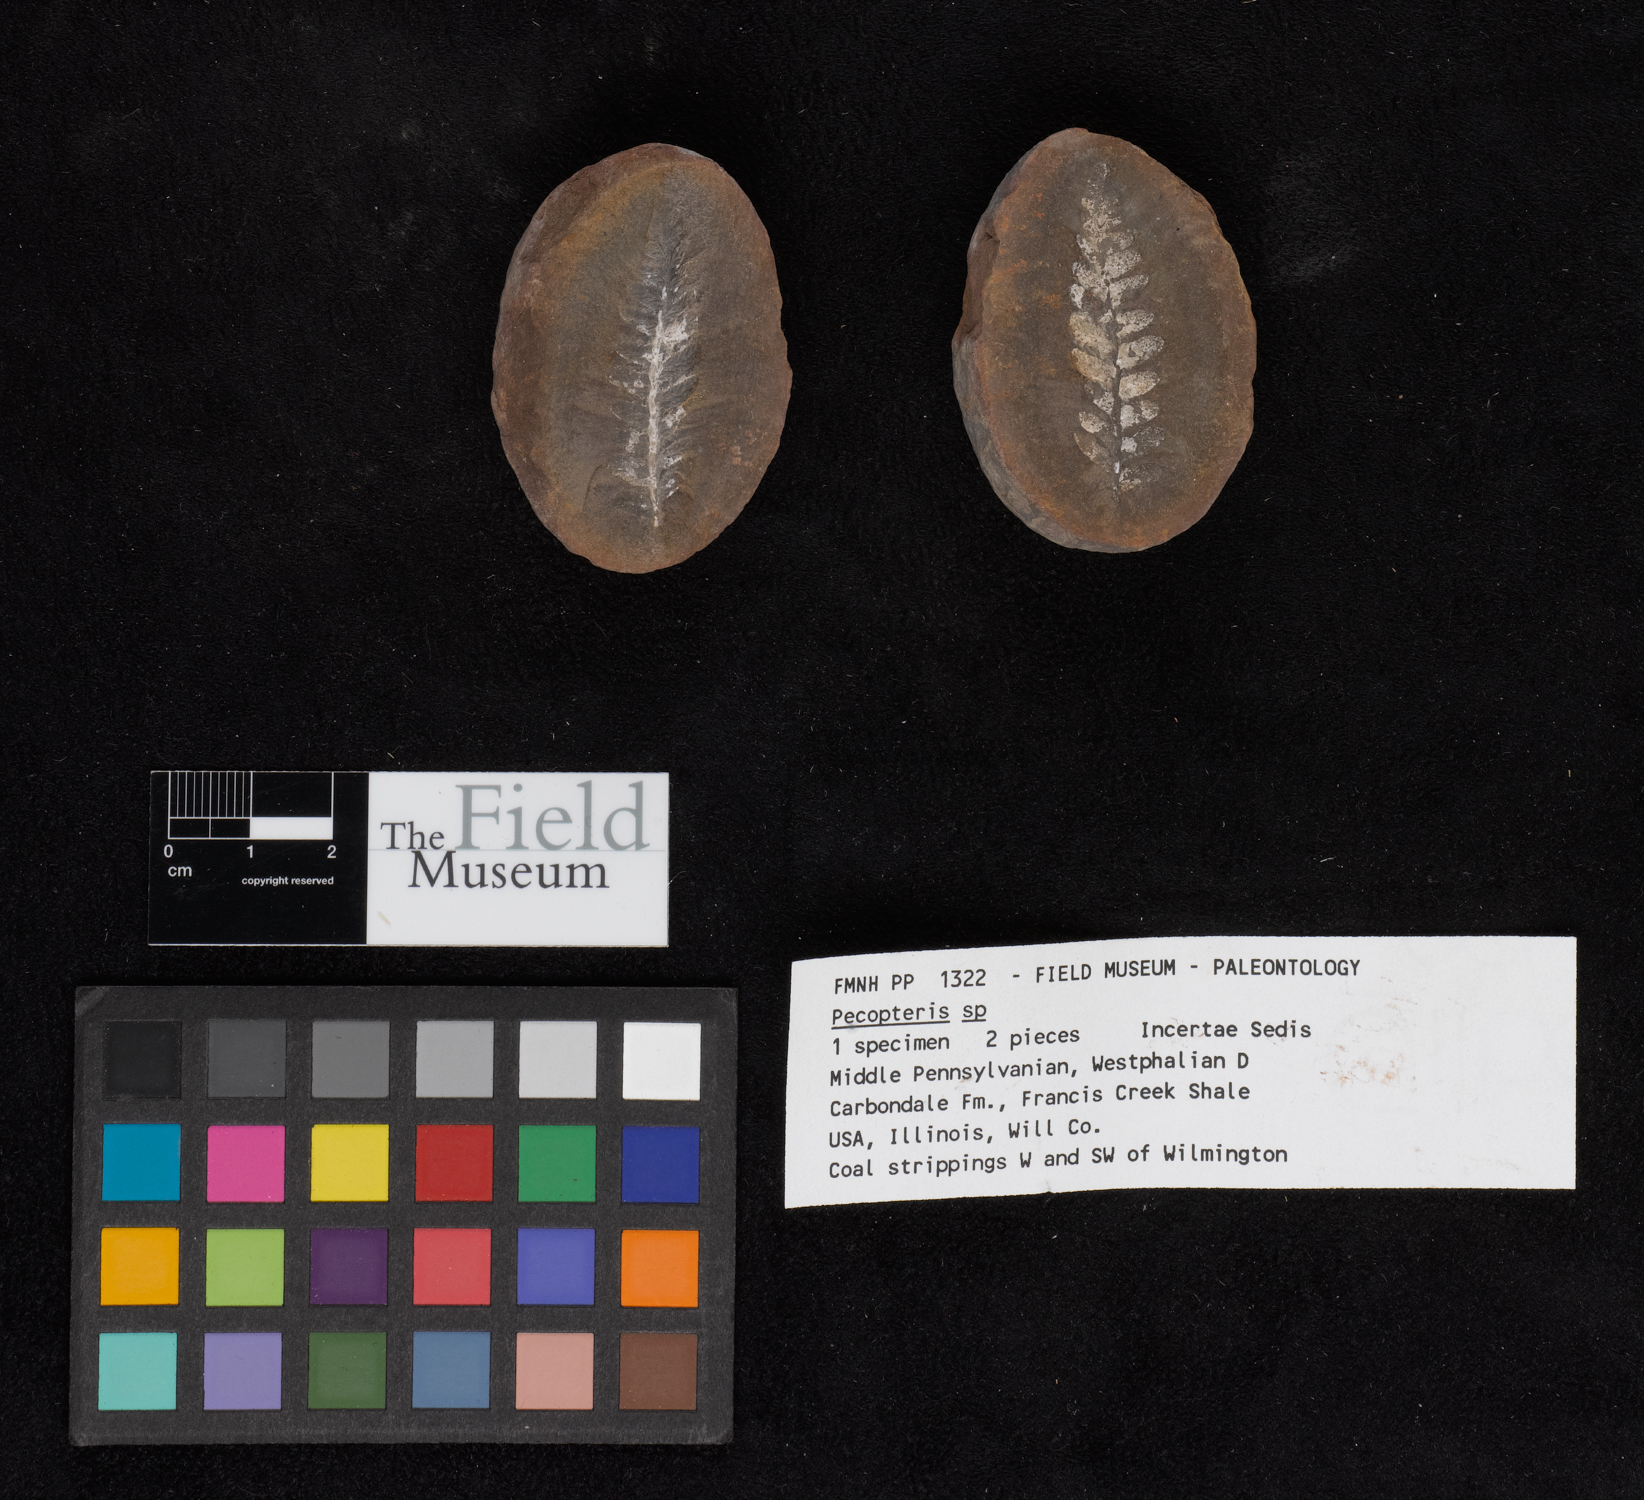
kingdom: Plantae
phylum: Tracheophyta
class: Polypodiopsida
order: Marattiales
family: Asterothecaceae
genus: Pecopteris
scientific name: Pecopteris
